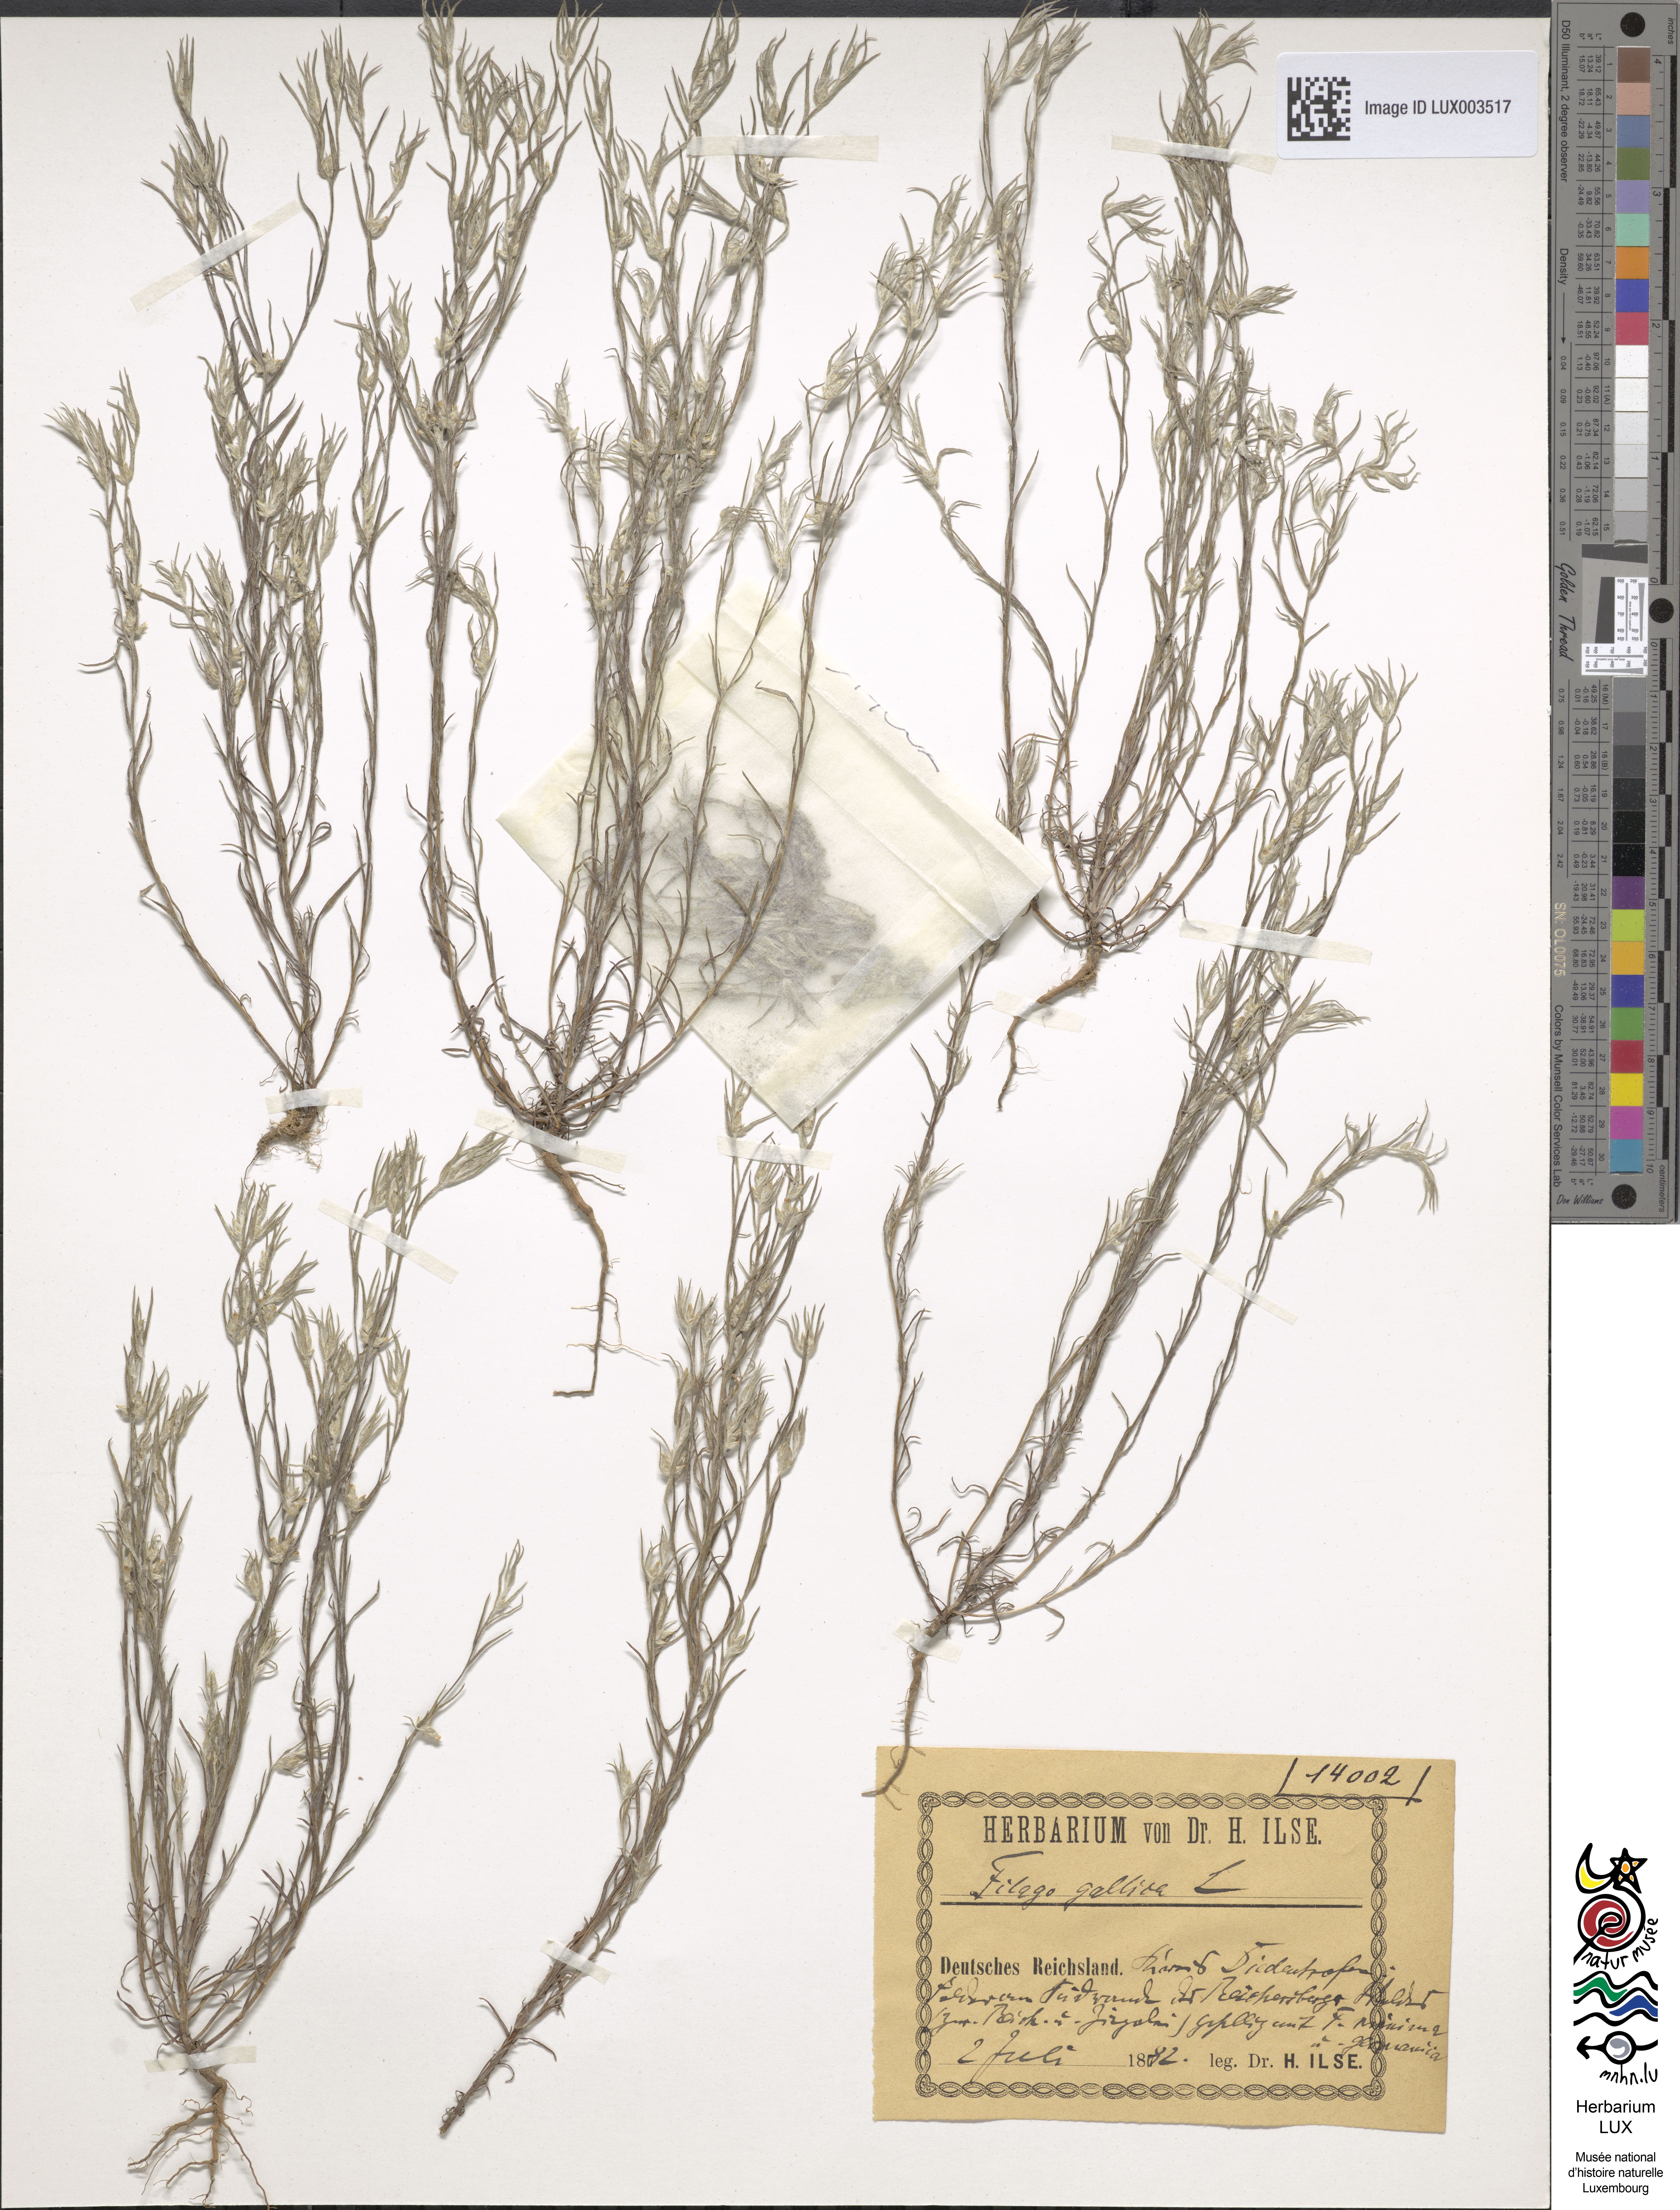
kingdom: Plantae
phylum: Tracheophyta
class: Magnoliopsida
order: Asterales
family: Asteraceae
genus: Logfia
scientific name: Logfia gallica
